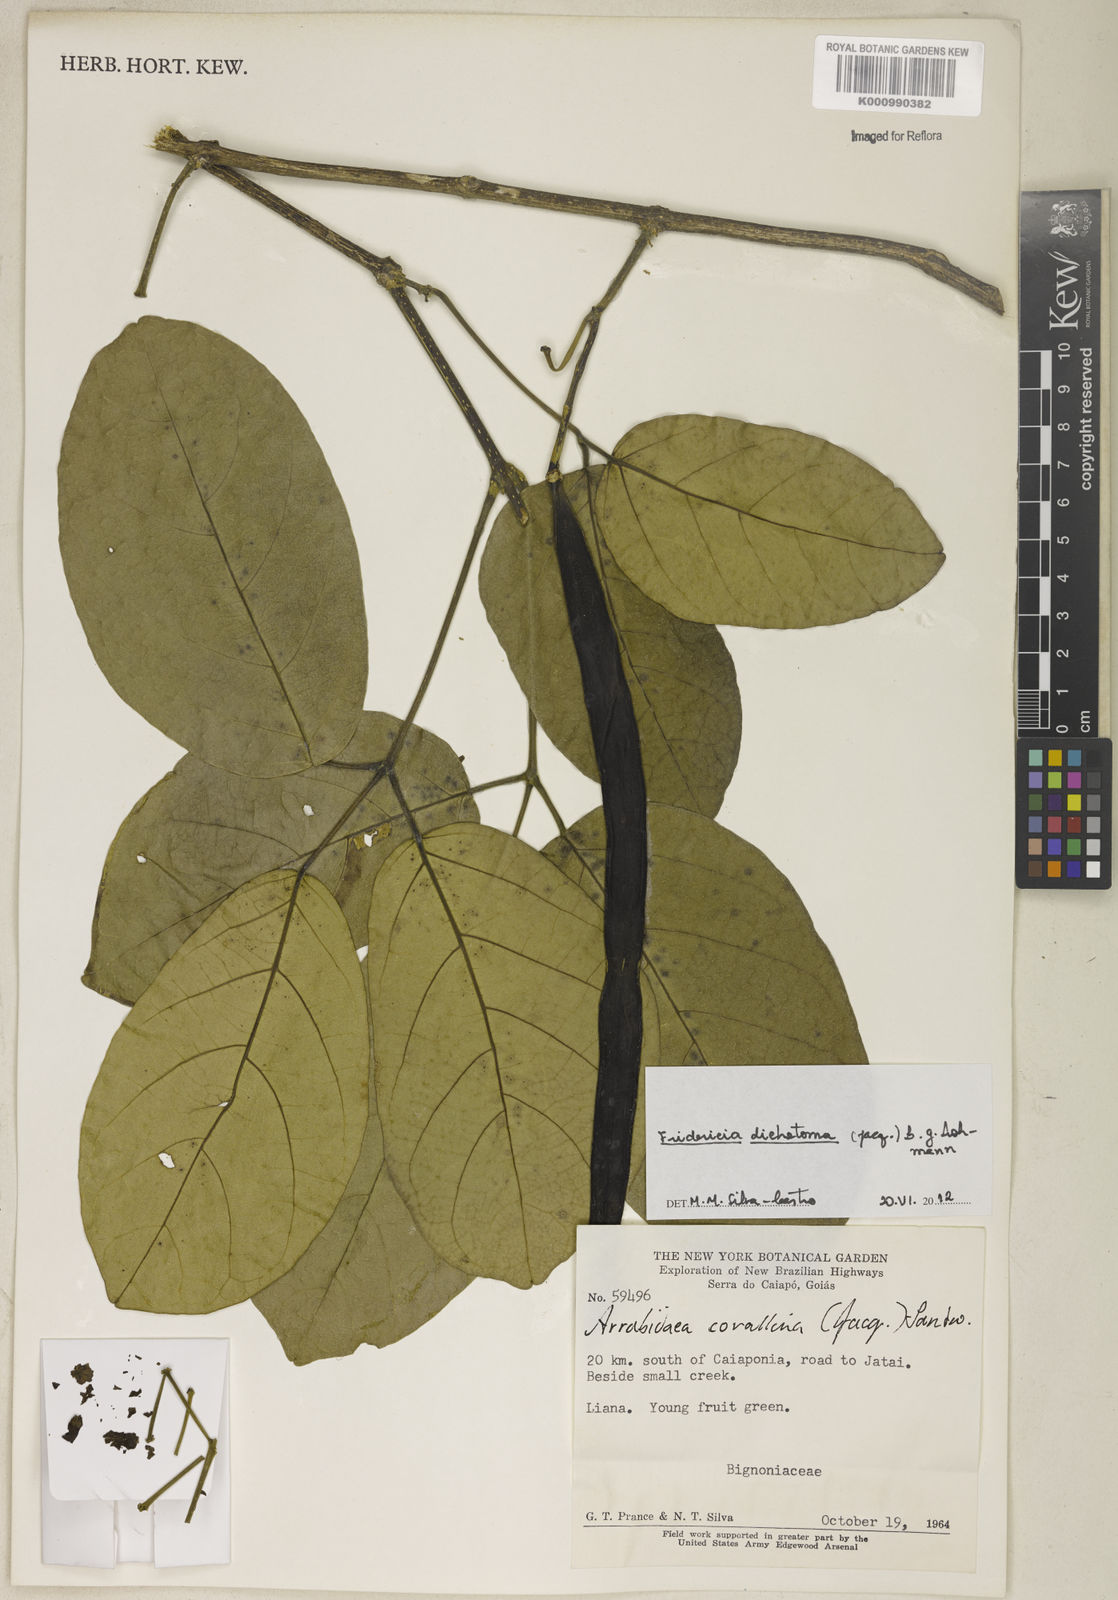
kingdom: Plantae
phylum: Tracheophyta
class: Magnoliopsida
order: Lamiales
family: Bignoniaceae
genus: Tanaecium
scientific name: Tanaecium dichotomum
